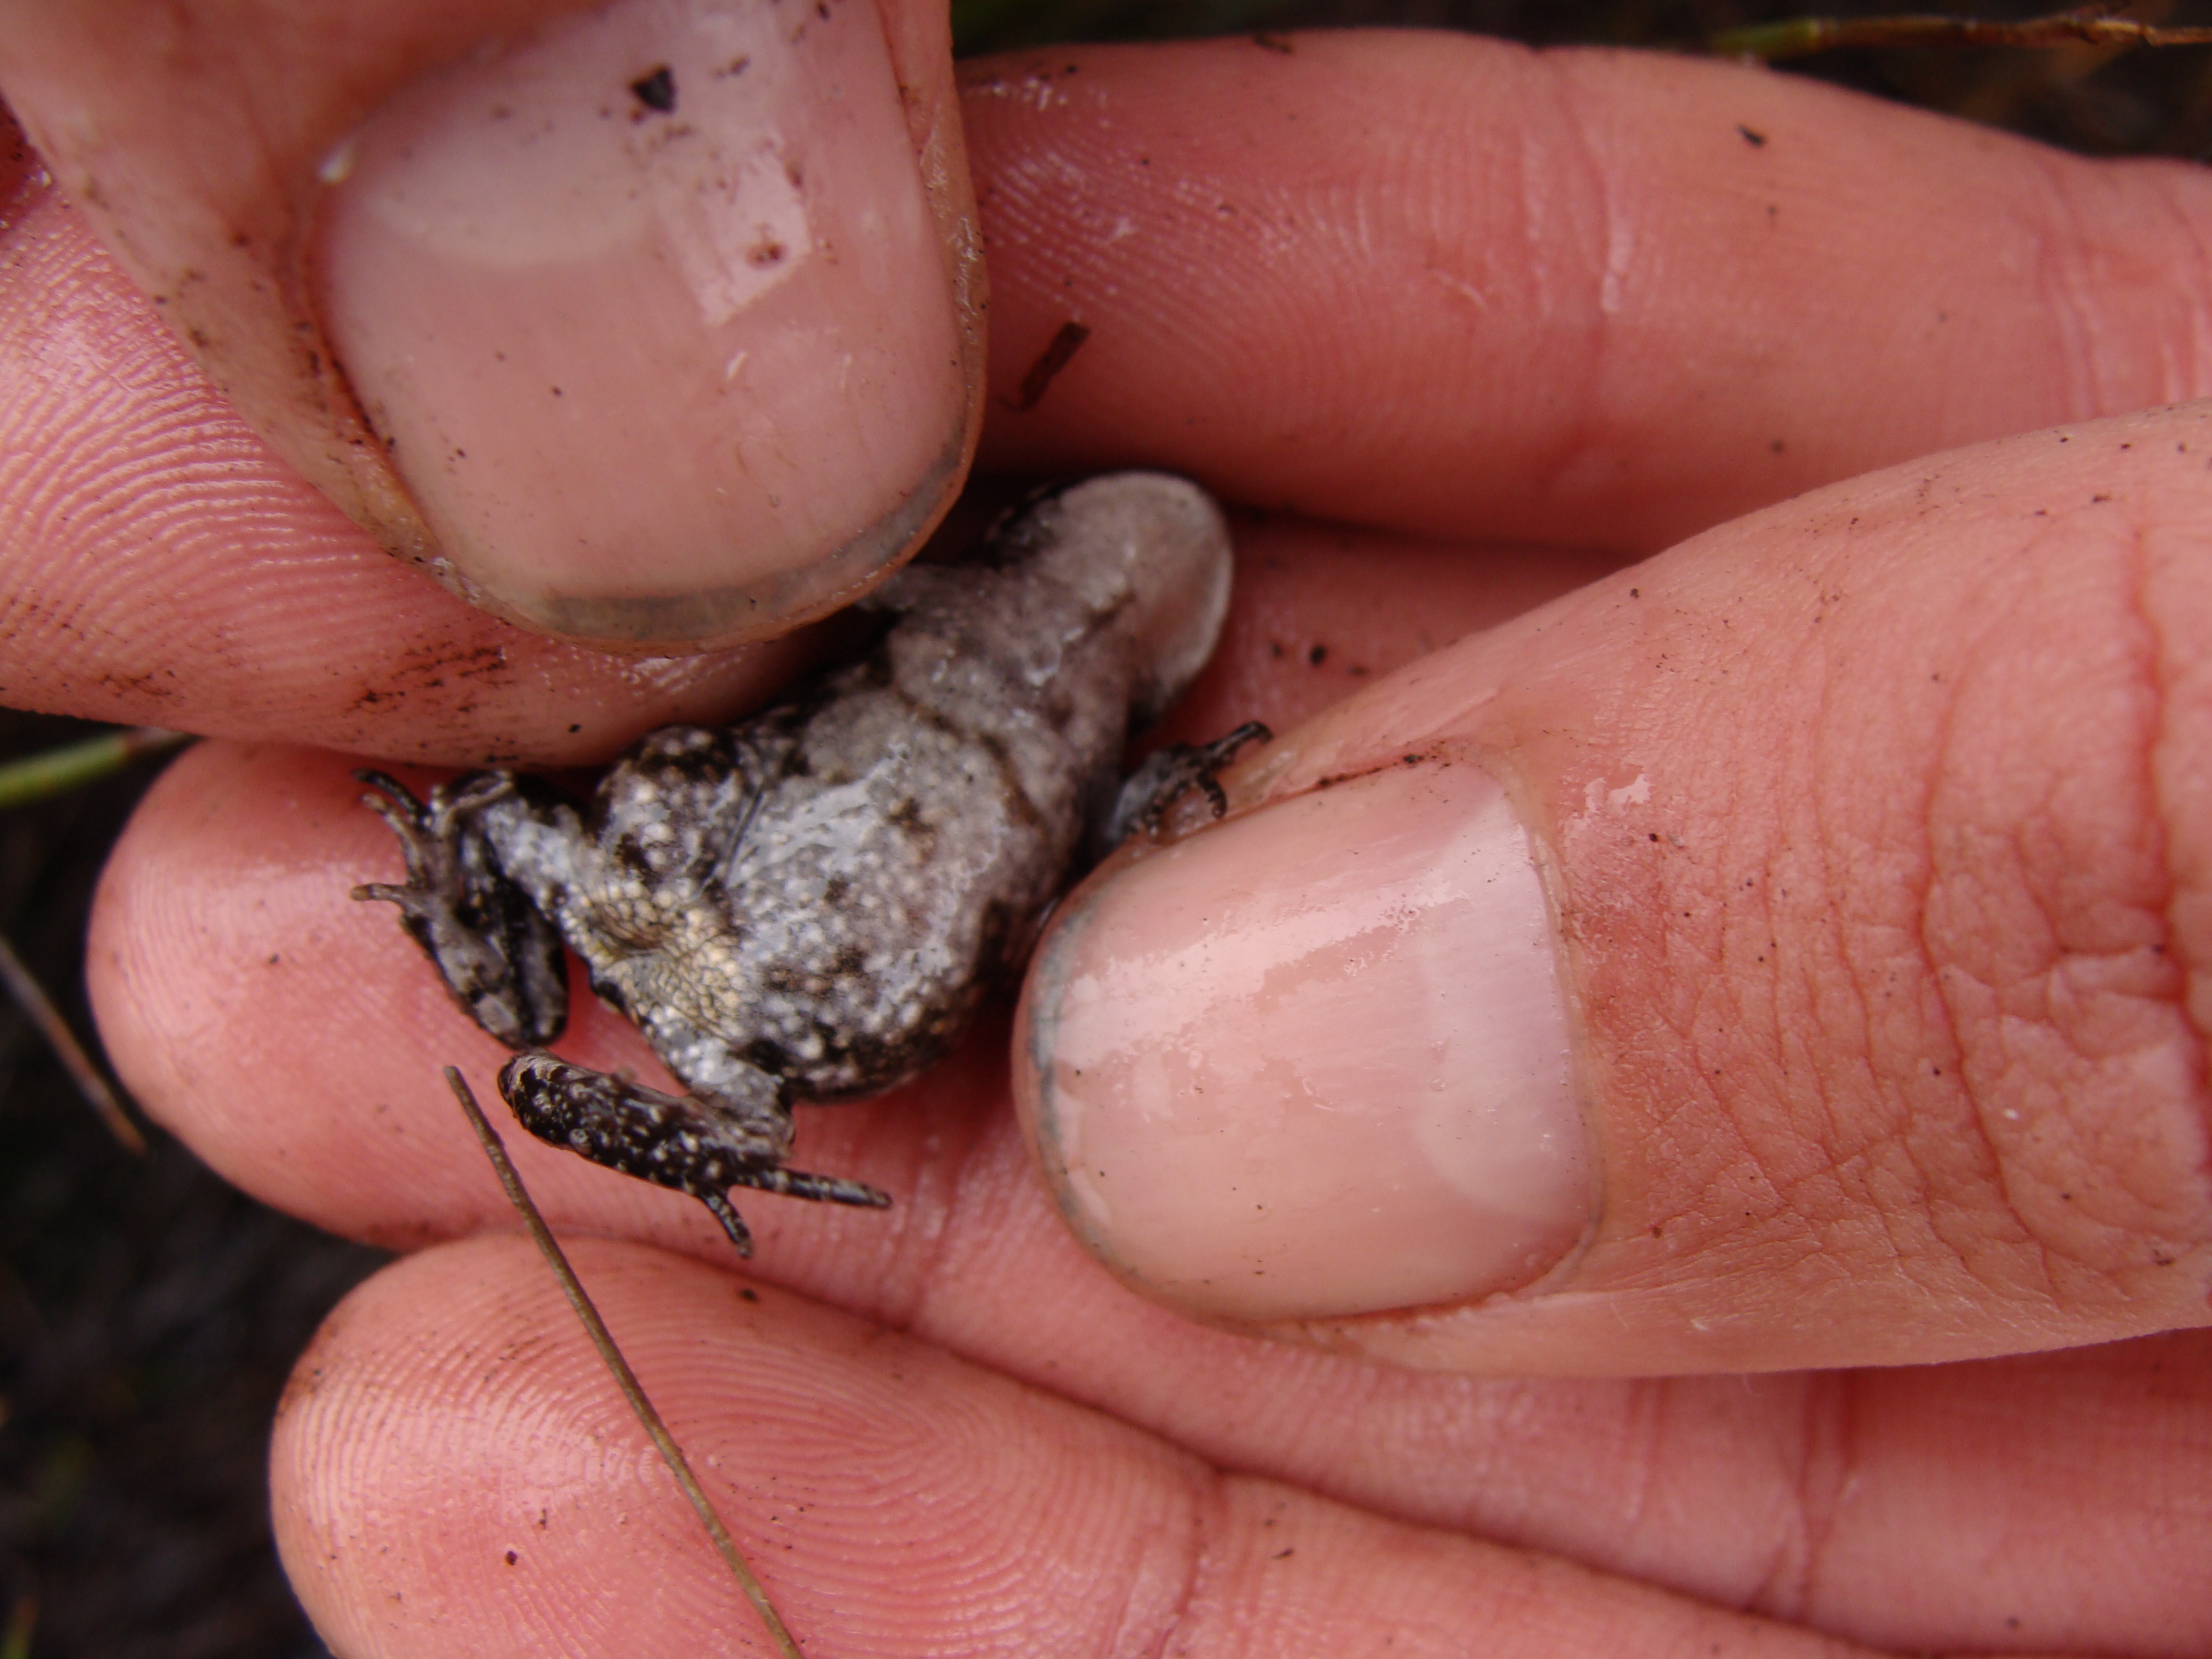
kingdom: Animalia
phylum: Chordata
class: Amphibia
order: Anura
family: Bufonidae
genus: Capensibufo
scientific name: Capensibufo rosei
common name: Cape mountain toad
